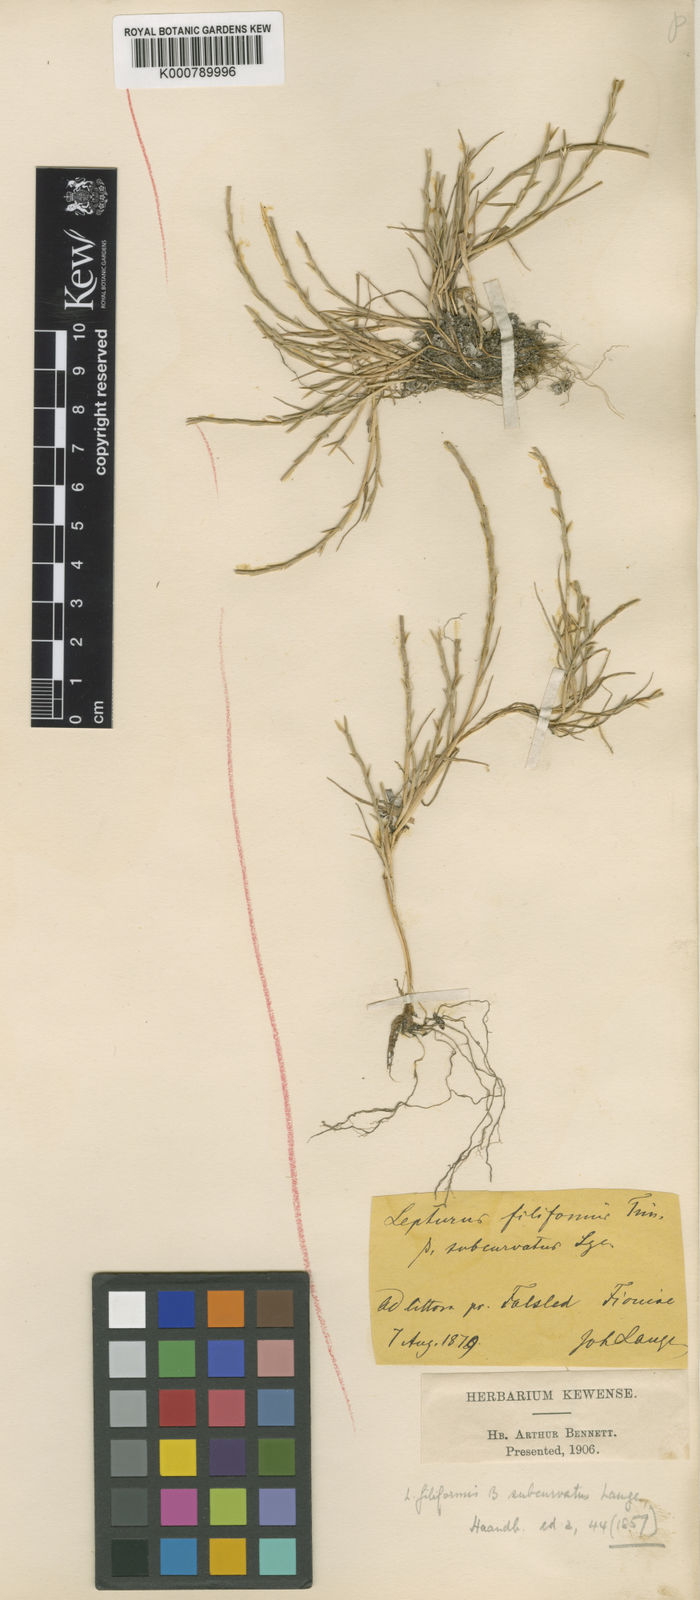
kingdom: Plantae
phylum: Tracheophyta
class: Liliopsida
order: Poales
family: Poaceae
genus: Parapholis
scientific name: Parapholis strigosa
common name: Hard-grass
